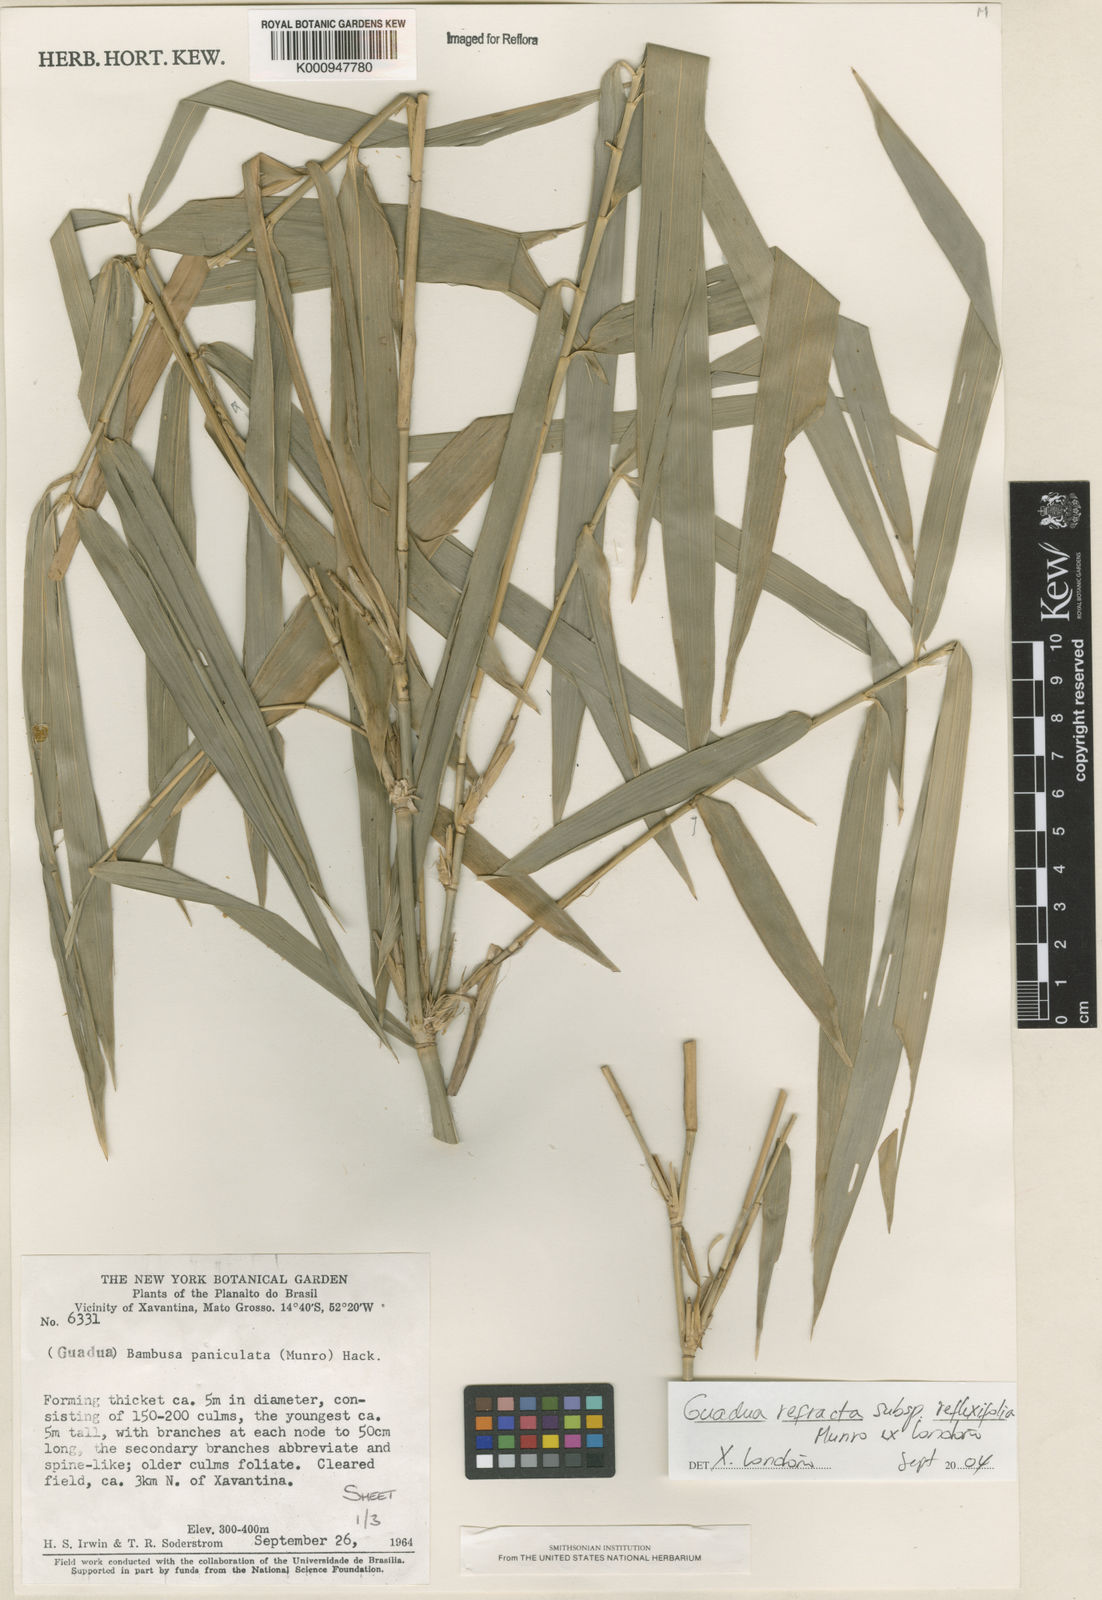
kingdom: Plantae
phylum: Tracheophyta
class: Liliopsida
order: Poales
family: Poaceae
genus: Guadua
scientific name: Guadua
